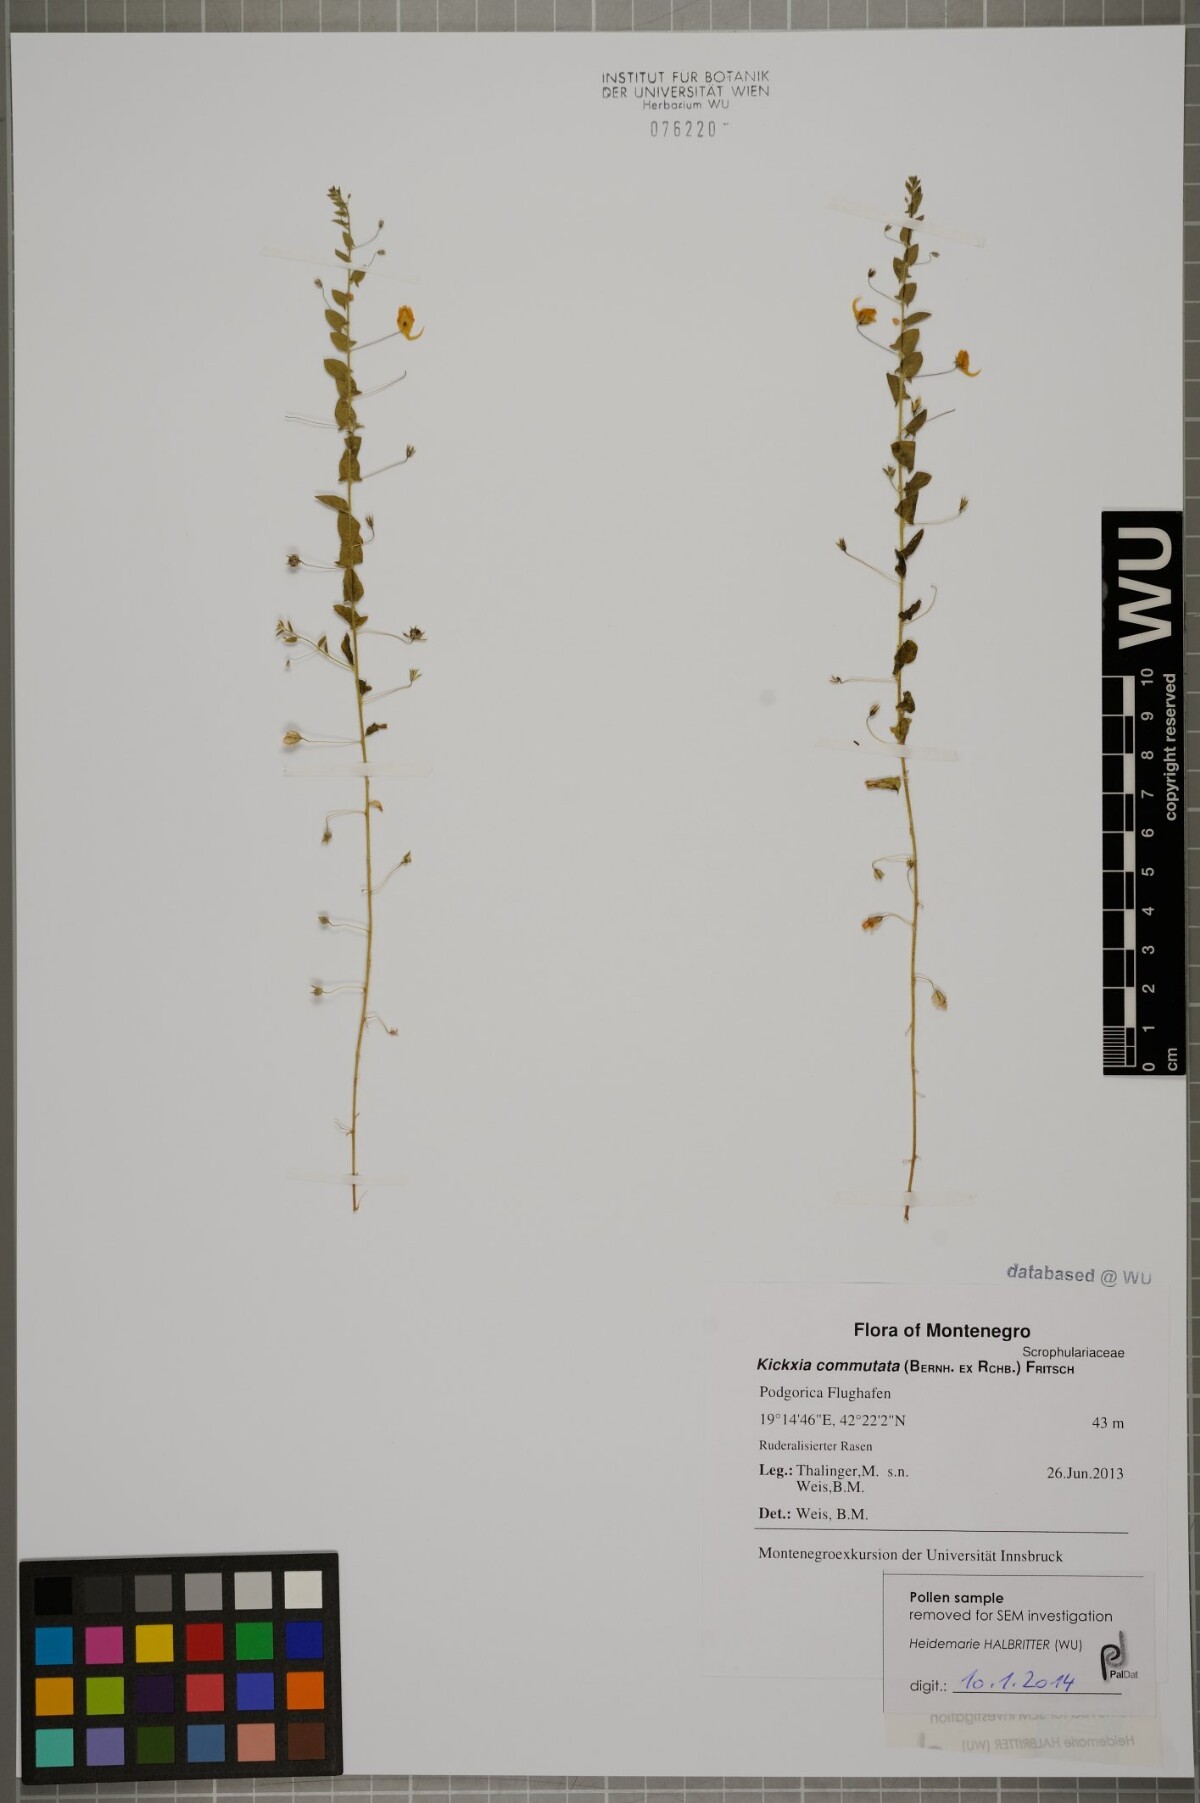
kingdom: Plantae
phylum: Tracheophyta
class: Magnoliopsida
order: Lamiales
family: Plantaginaceae
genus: Kickxia
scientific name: Kickxia commutata
